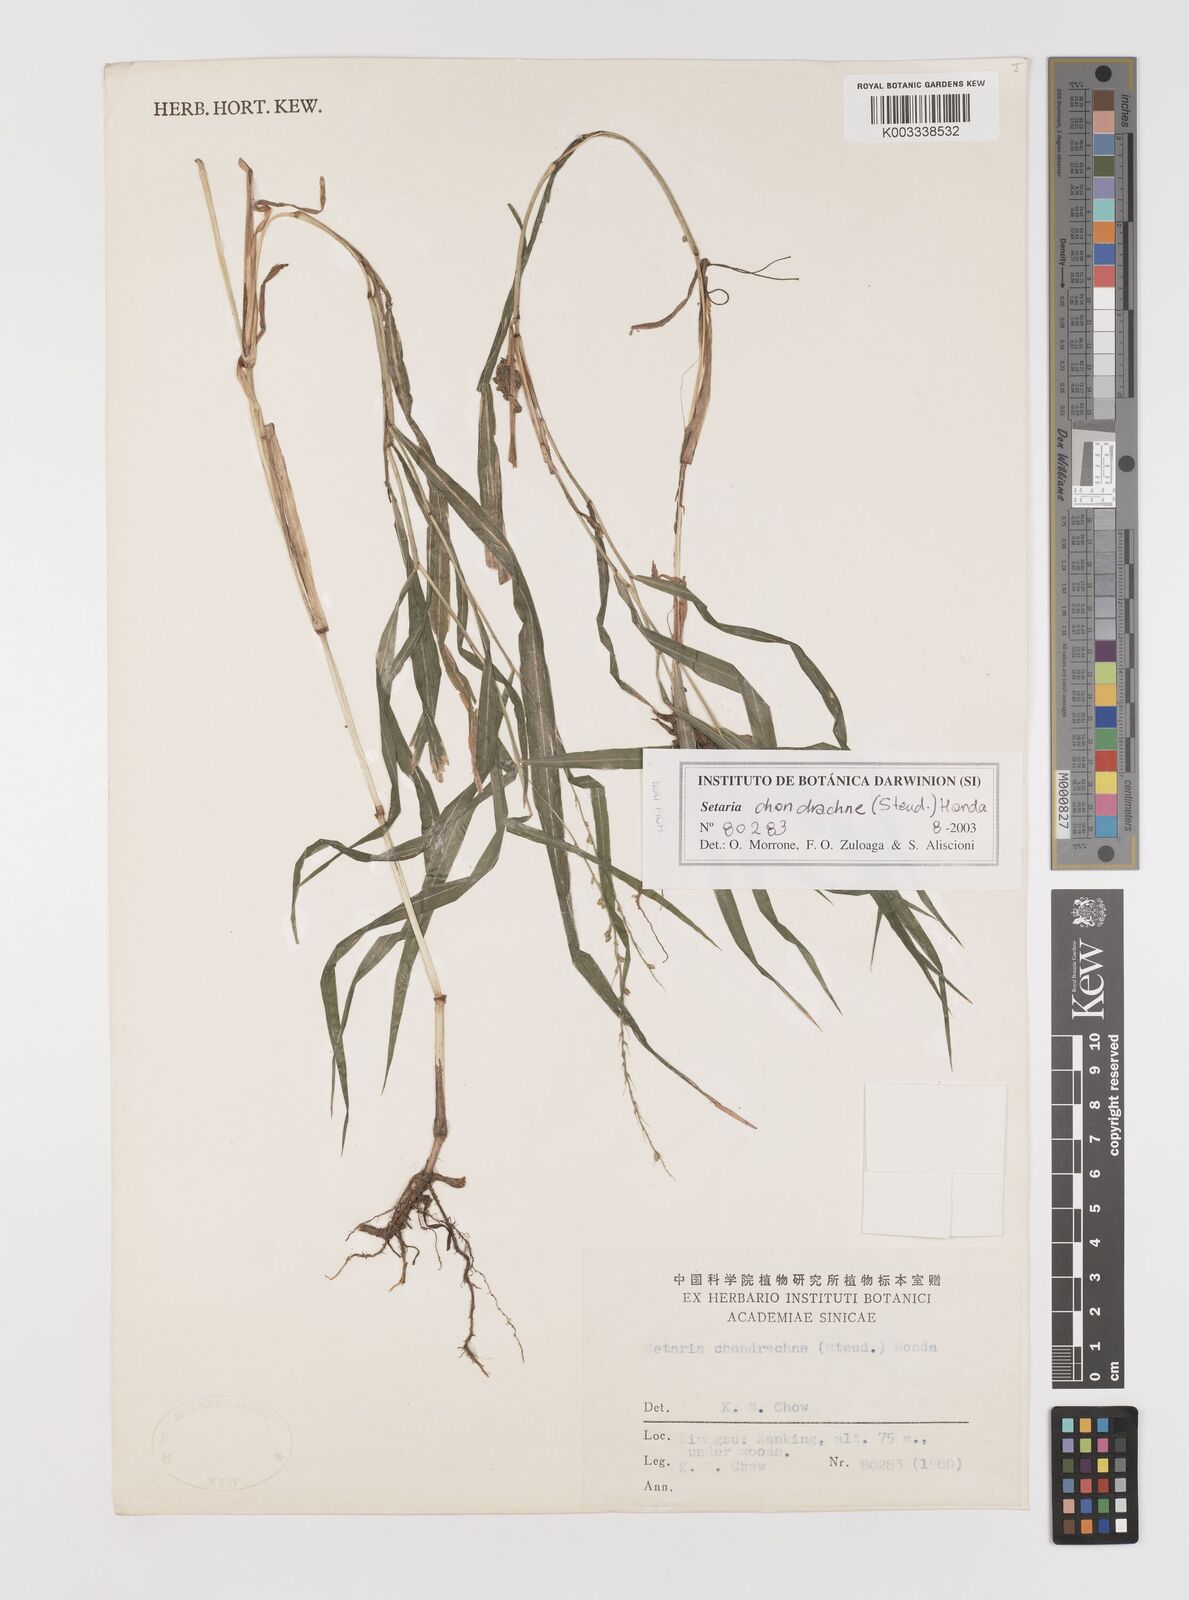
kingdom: Plantae
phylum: Tracheophyta
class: Liliopsida
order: Poales
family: Poaceae
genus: Setaria
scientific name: Setaria chondrachne
